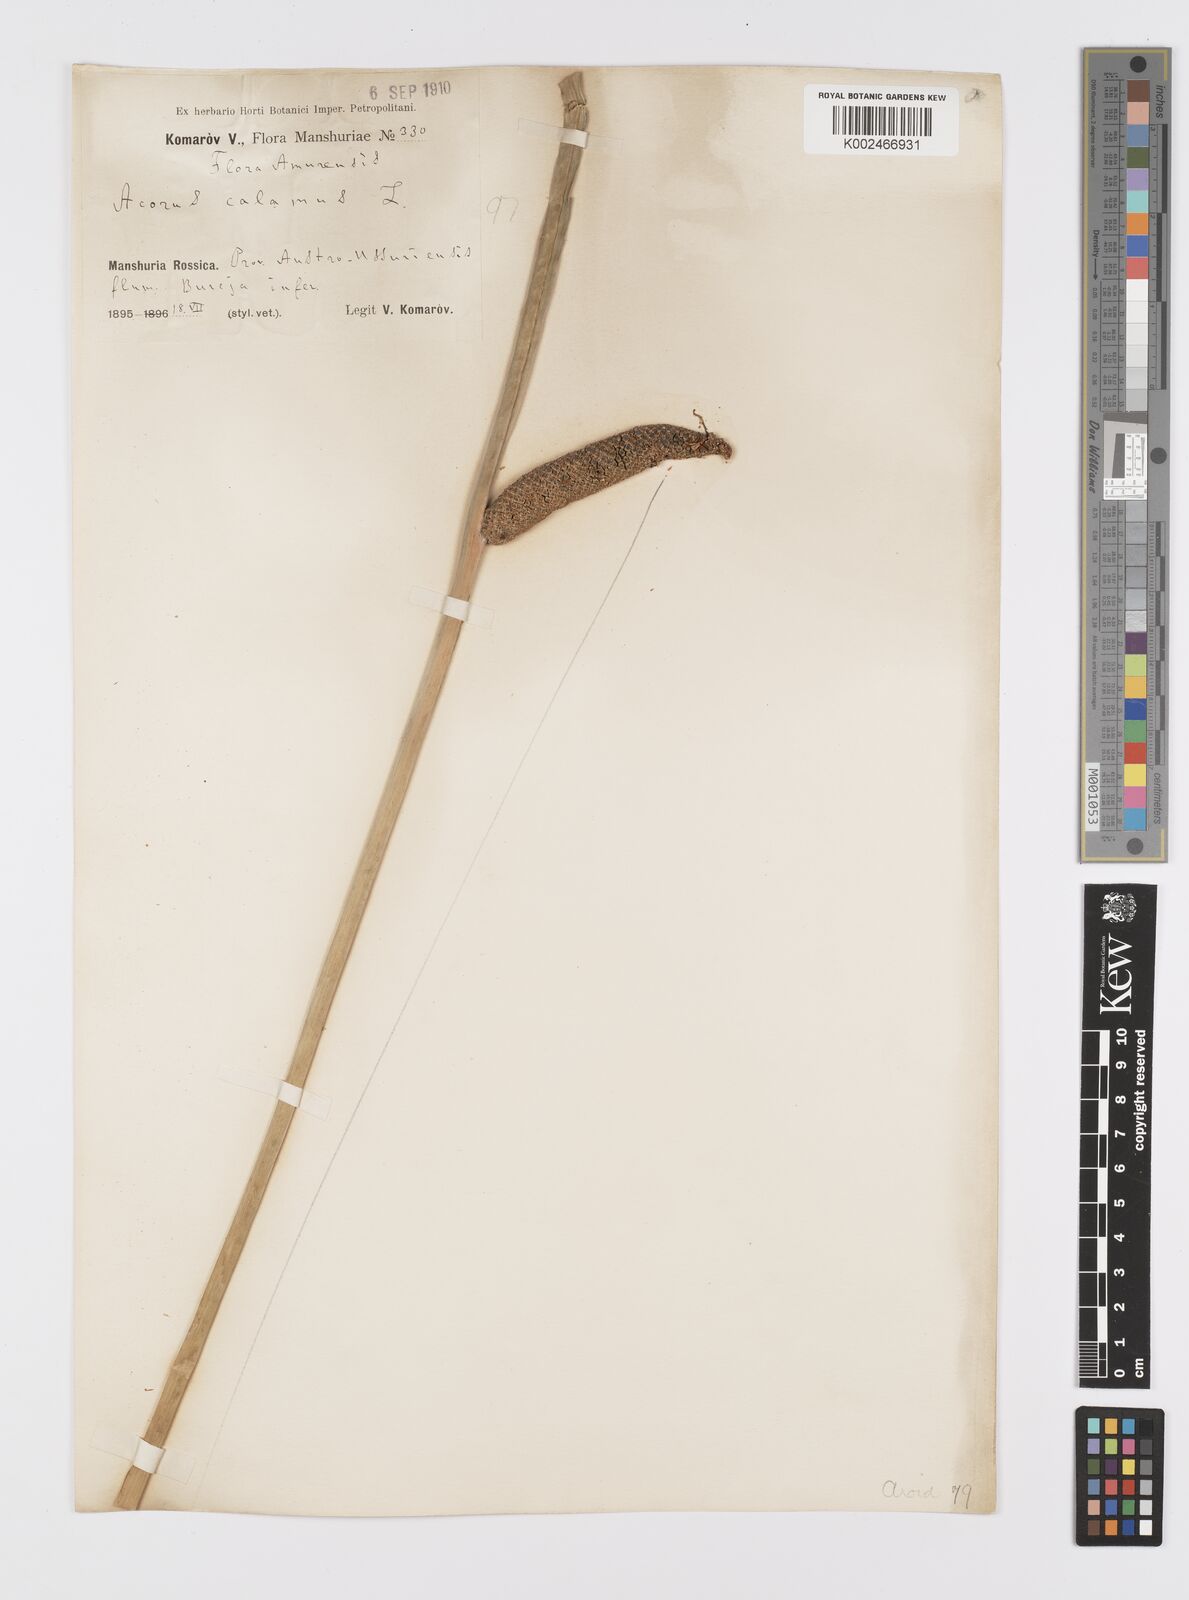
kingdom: Plantae
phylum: Tracheophyta
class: Liliopsida
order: Acorales
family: Acoraceae
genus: Acorus
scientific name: Acorus calamus
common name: Sweet-flag
